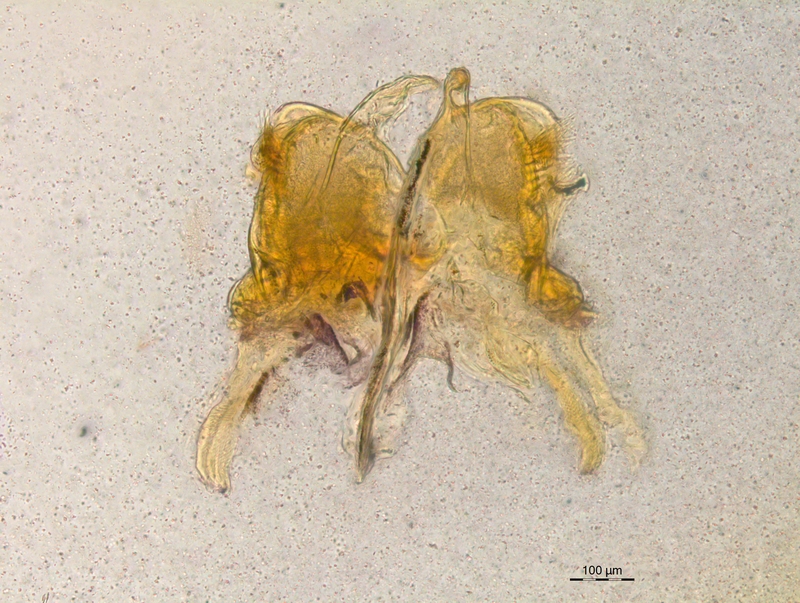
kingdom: Animalia
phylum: Arthropoda
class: Diplopoda
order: Chordeumatida
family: Craspedosomatidae
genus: Craspedosoma
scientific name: Craspedosoma rawlinsii
